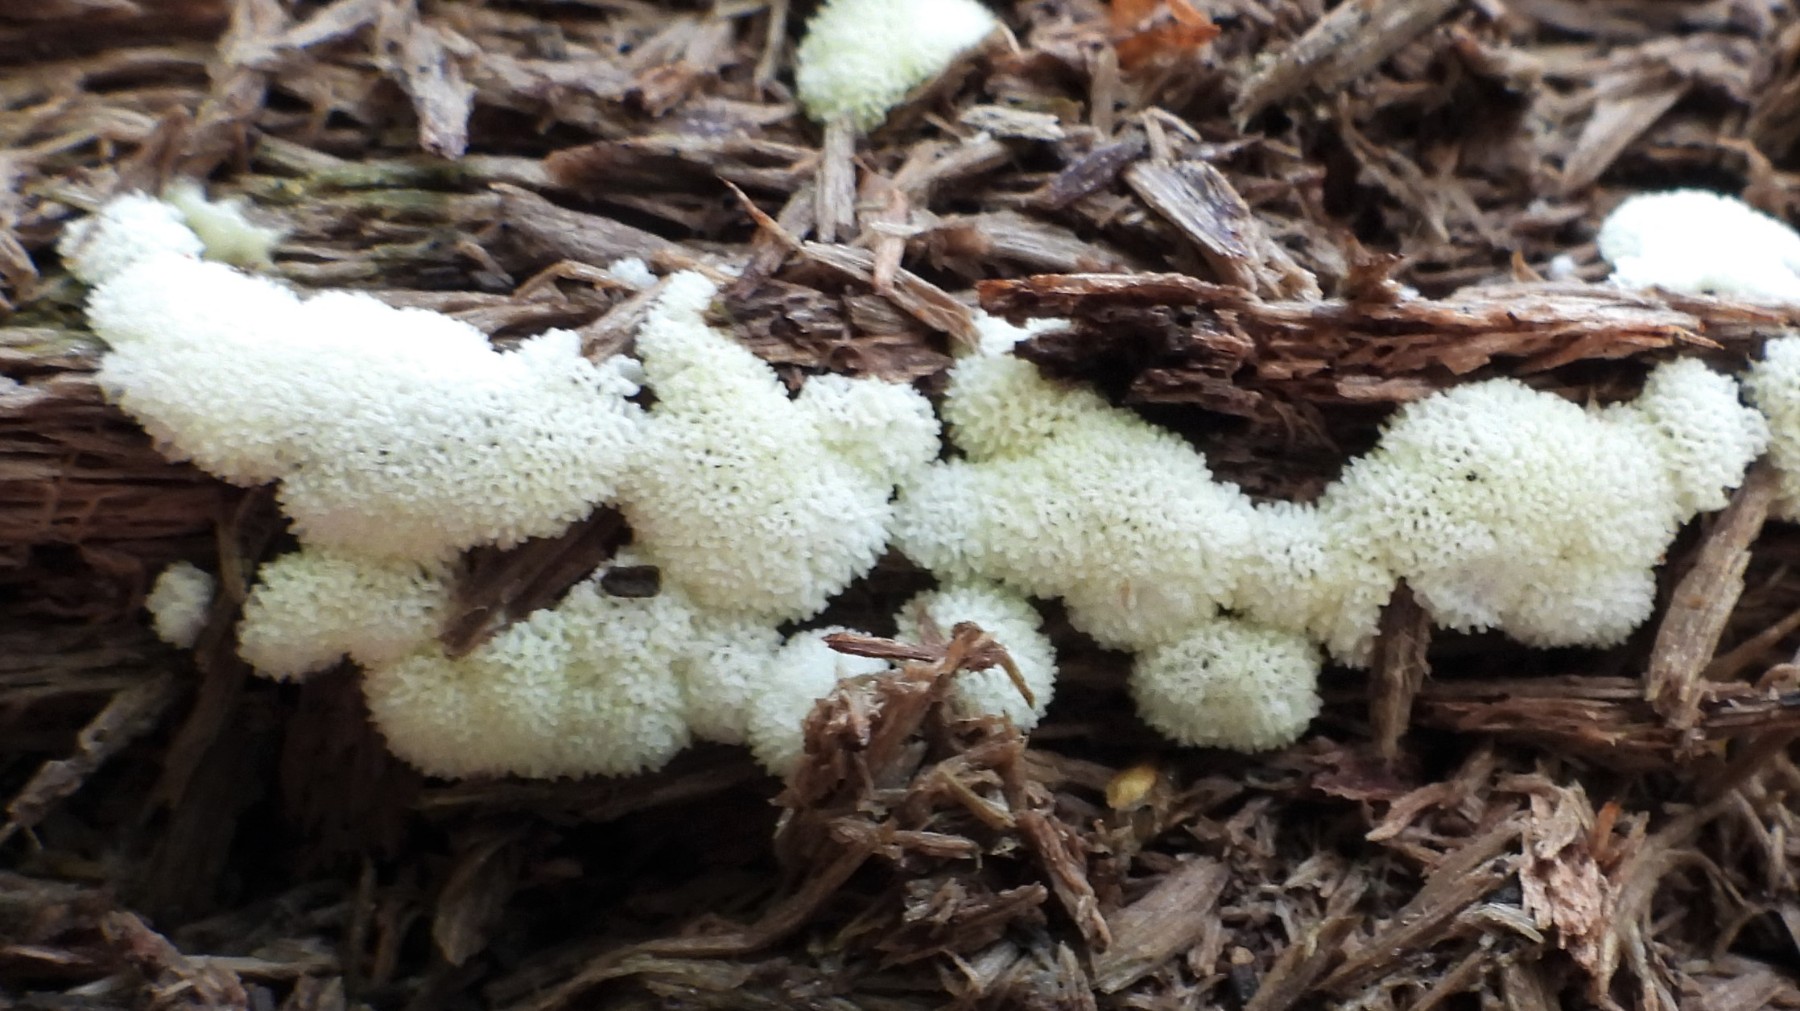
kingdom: Protozoa
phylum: Mycetozoa
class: Protosteliomycetes
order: Ceratiomyxales
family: Ceratiomyxaceae
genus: Ceratiomyxa
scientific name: Ceratiomyxa fruticulosa
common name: Honeycomb coral slime mold
